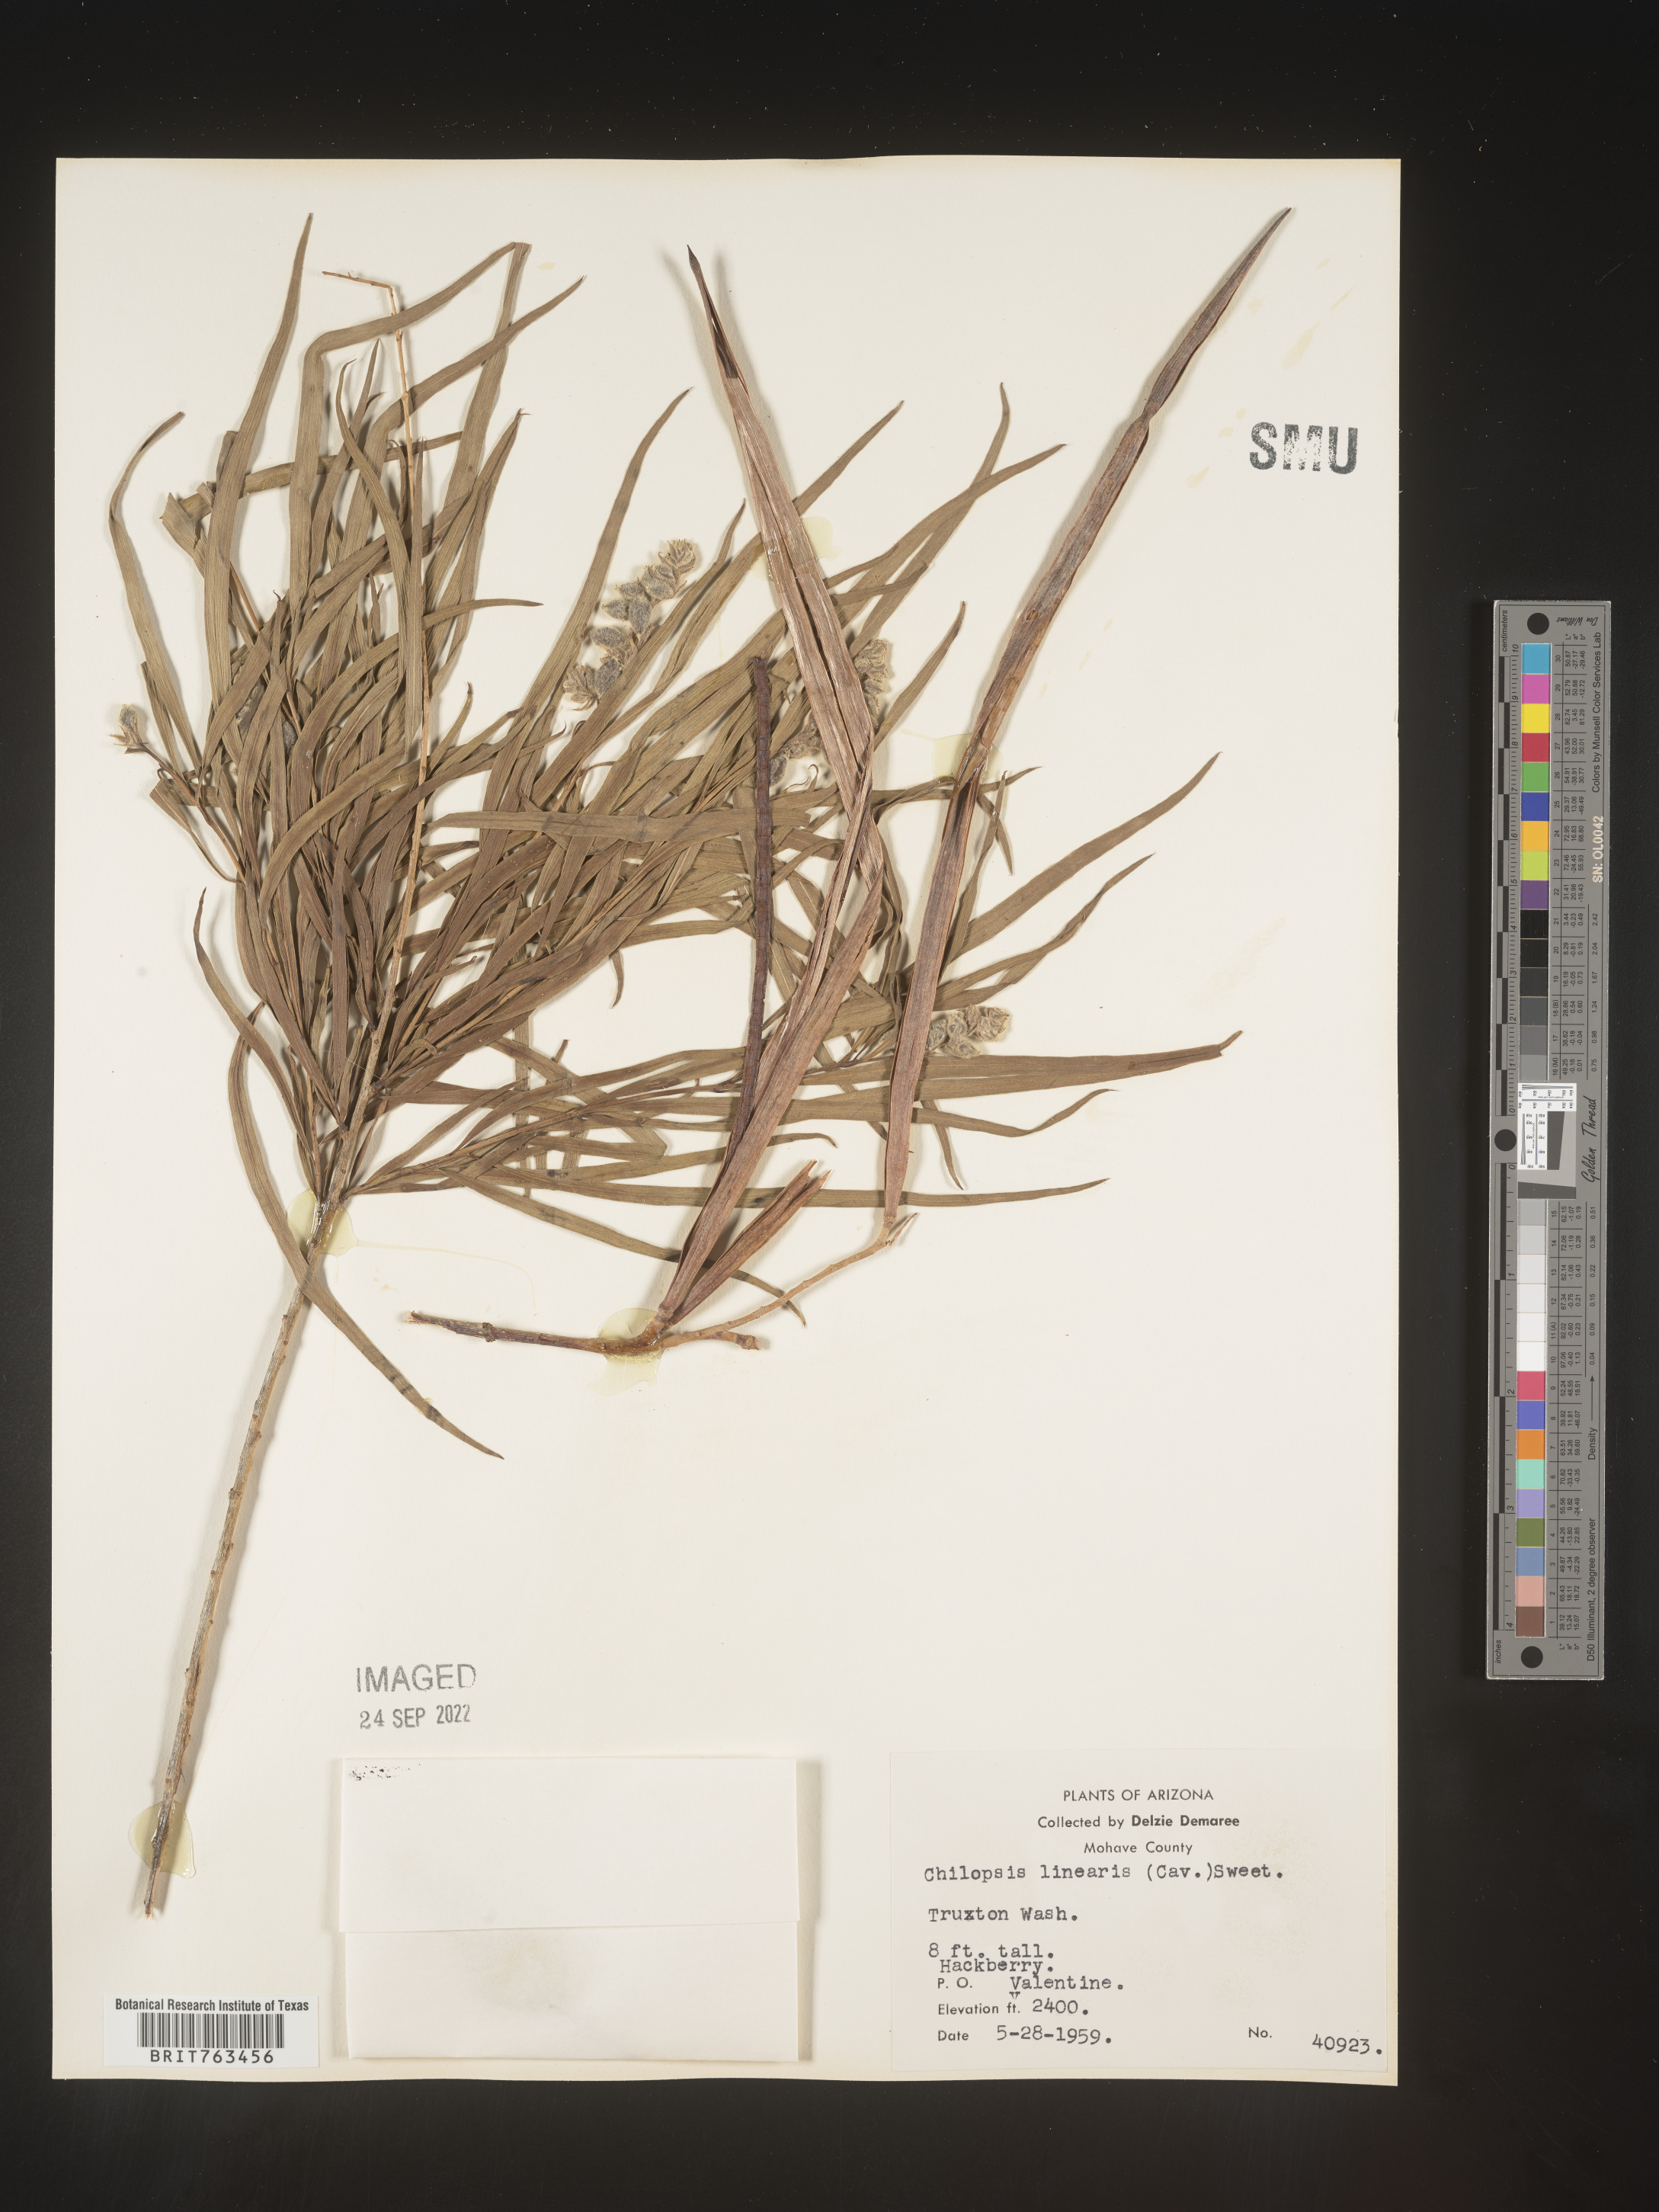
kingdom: Plantae
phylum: Tracheophyta
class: Magnoliopsida
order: Lamiales
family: Bignoniaceae
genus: Chilopsis
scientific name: Chilopsis linearis
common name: Desert-willow
